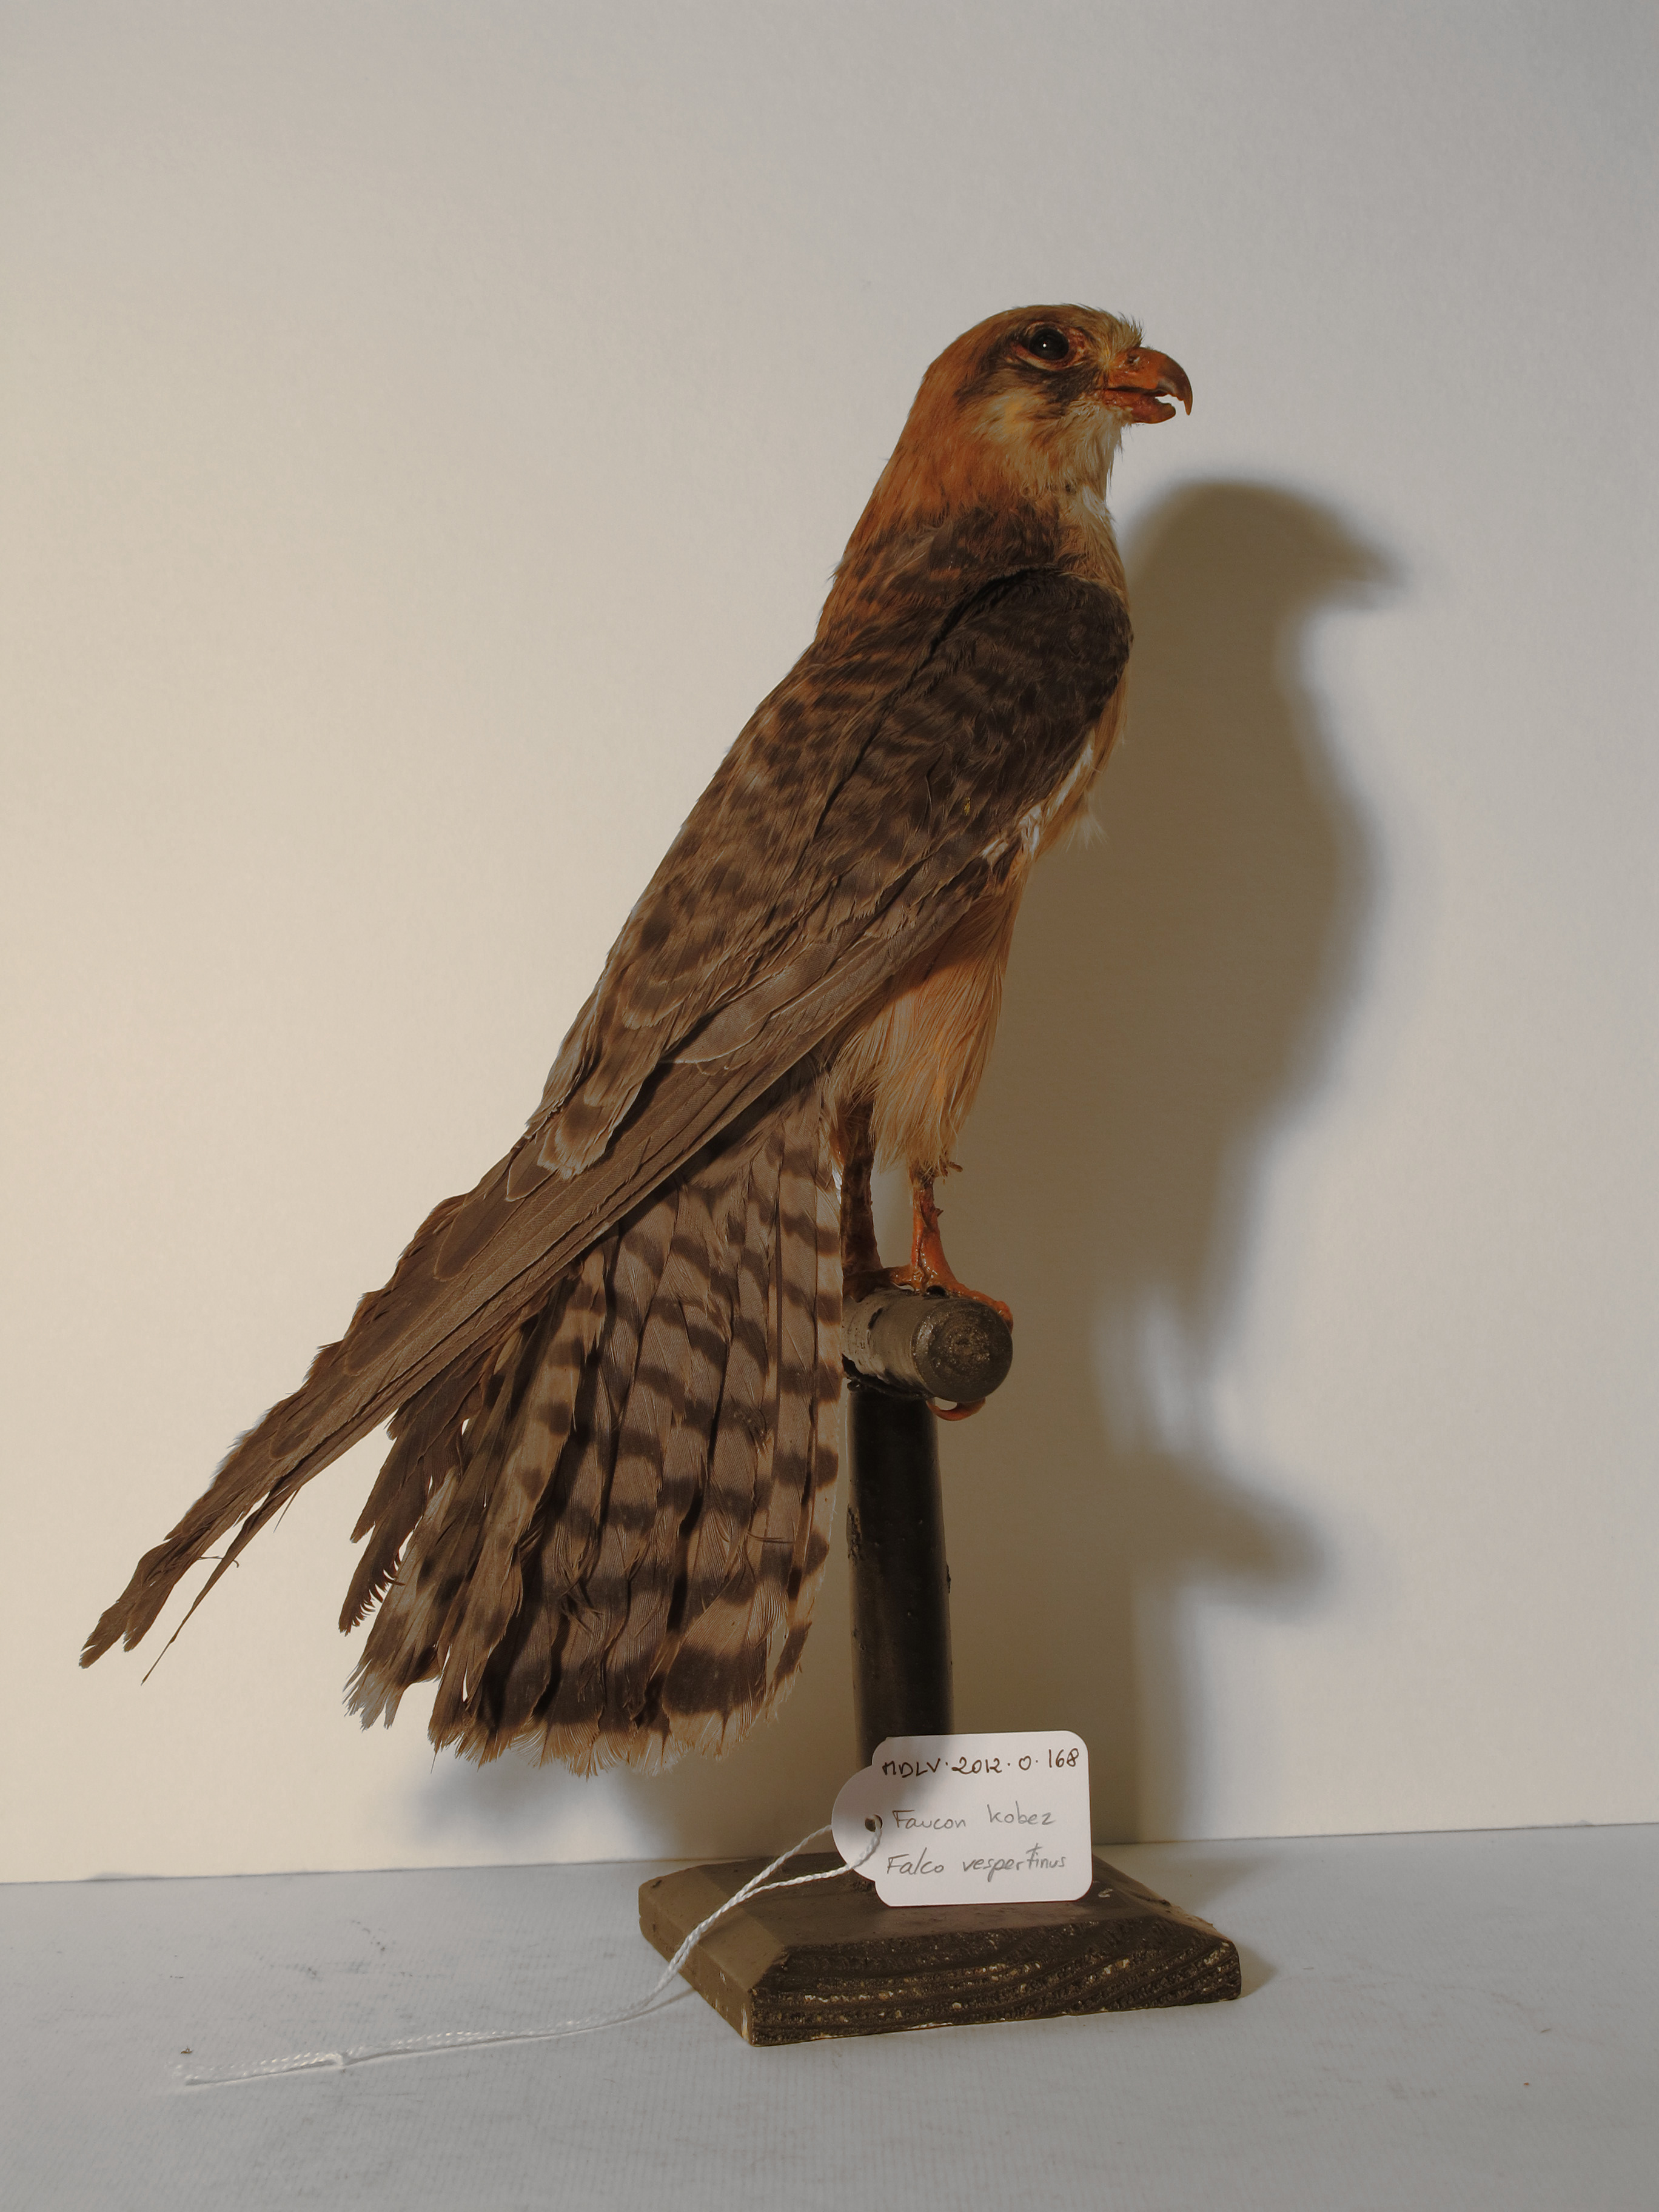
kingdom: Animalia
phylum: Chordata
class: Aves
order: Falconiformes
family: Falconidae
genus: Falco
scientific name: Falco vespertinus
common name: Red-footed Falcon
